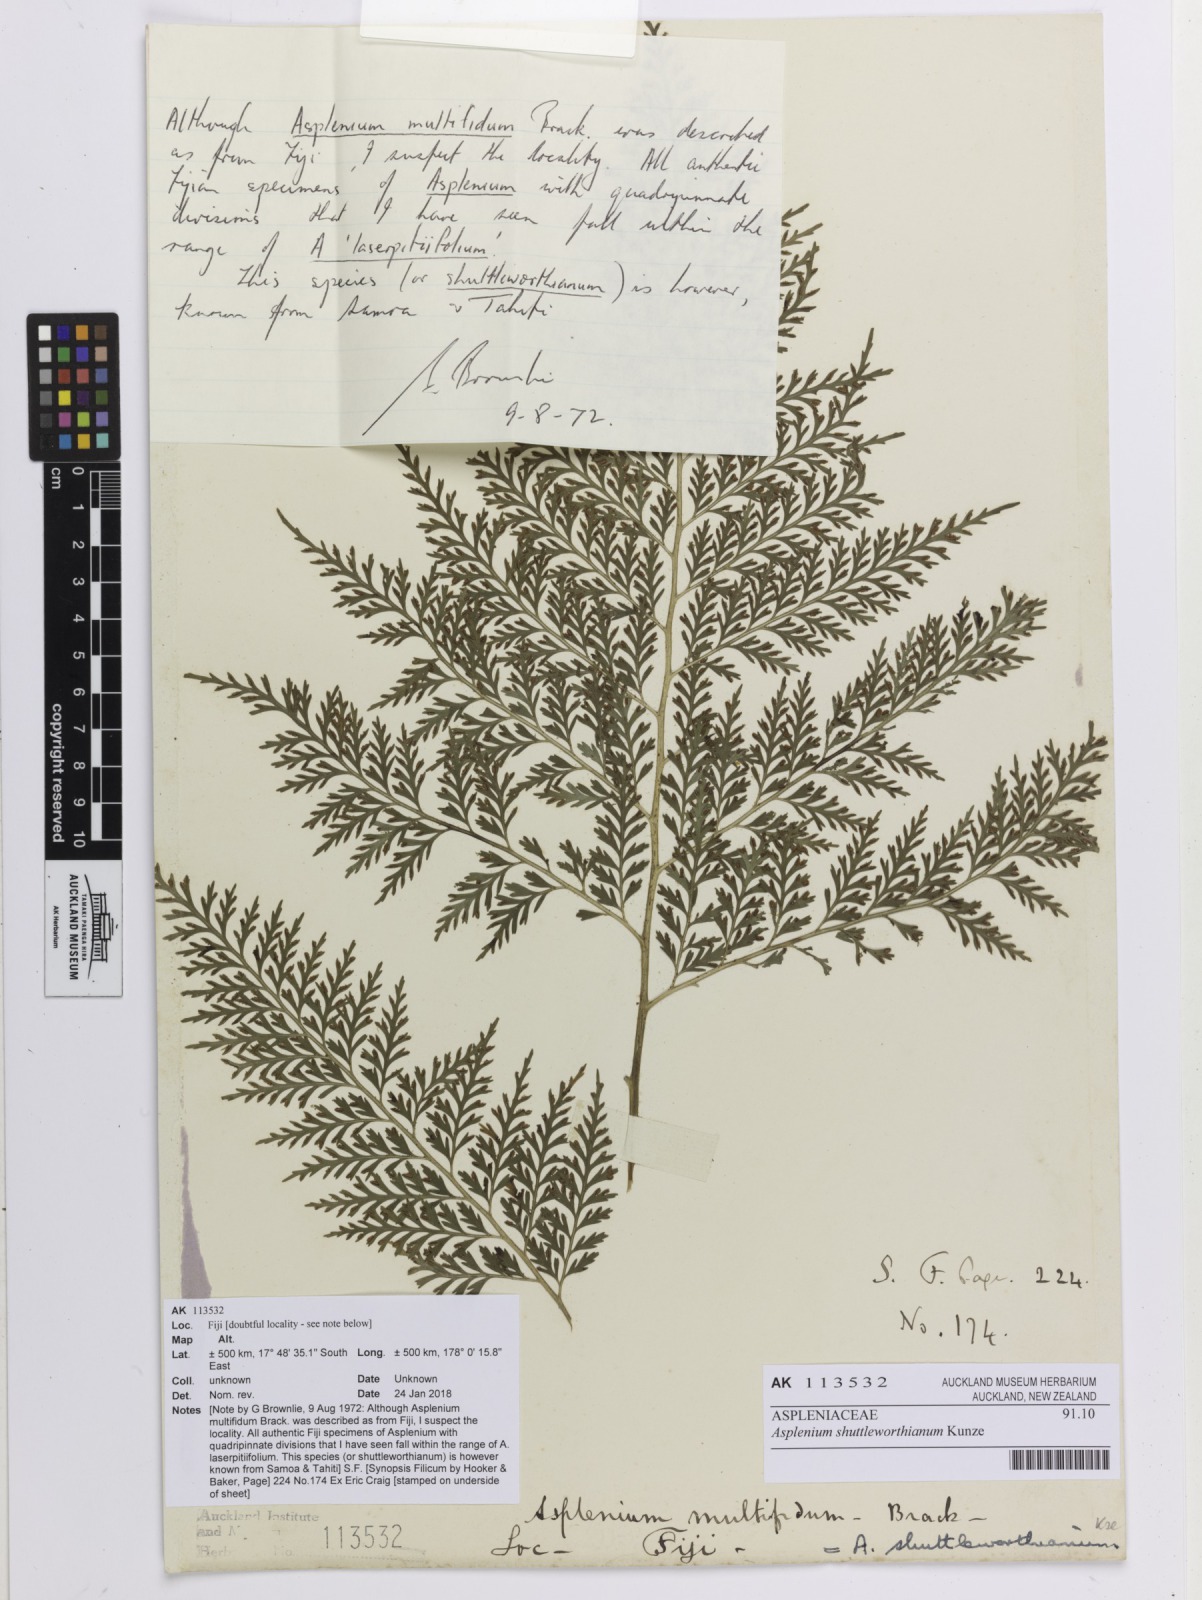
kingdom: Plantae
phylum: Tracheophyta
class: Polypodiopsida
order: Polypodiales
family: Aspleniaceae
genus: Asplenium
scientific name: Asplenium shuttleworthianum
